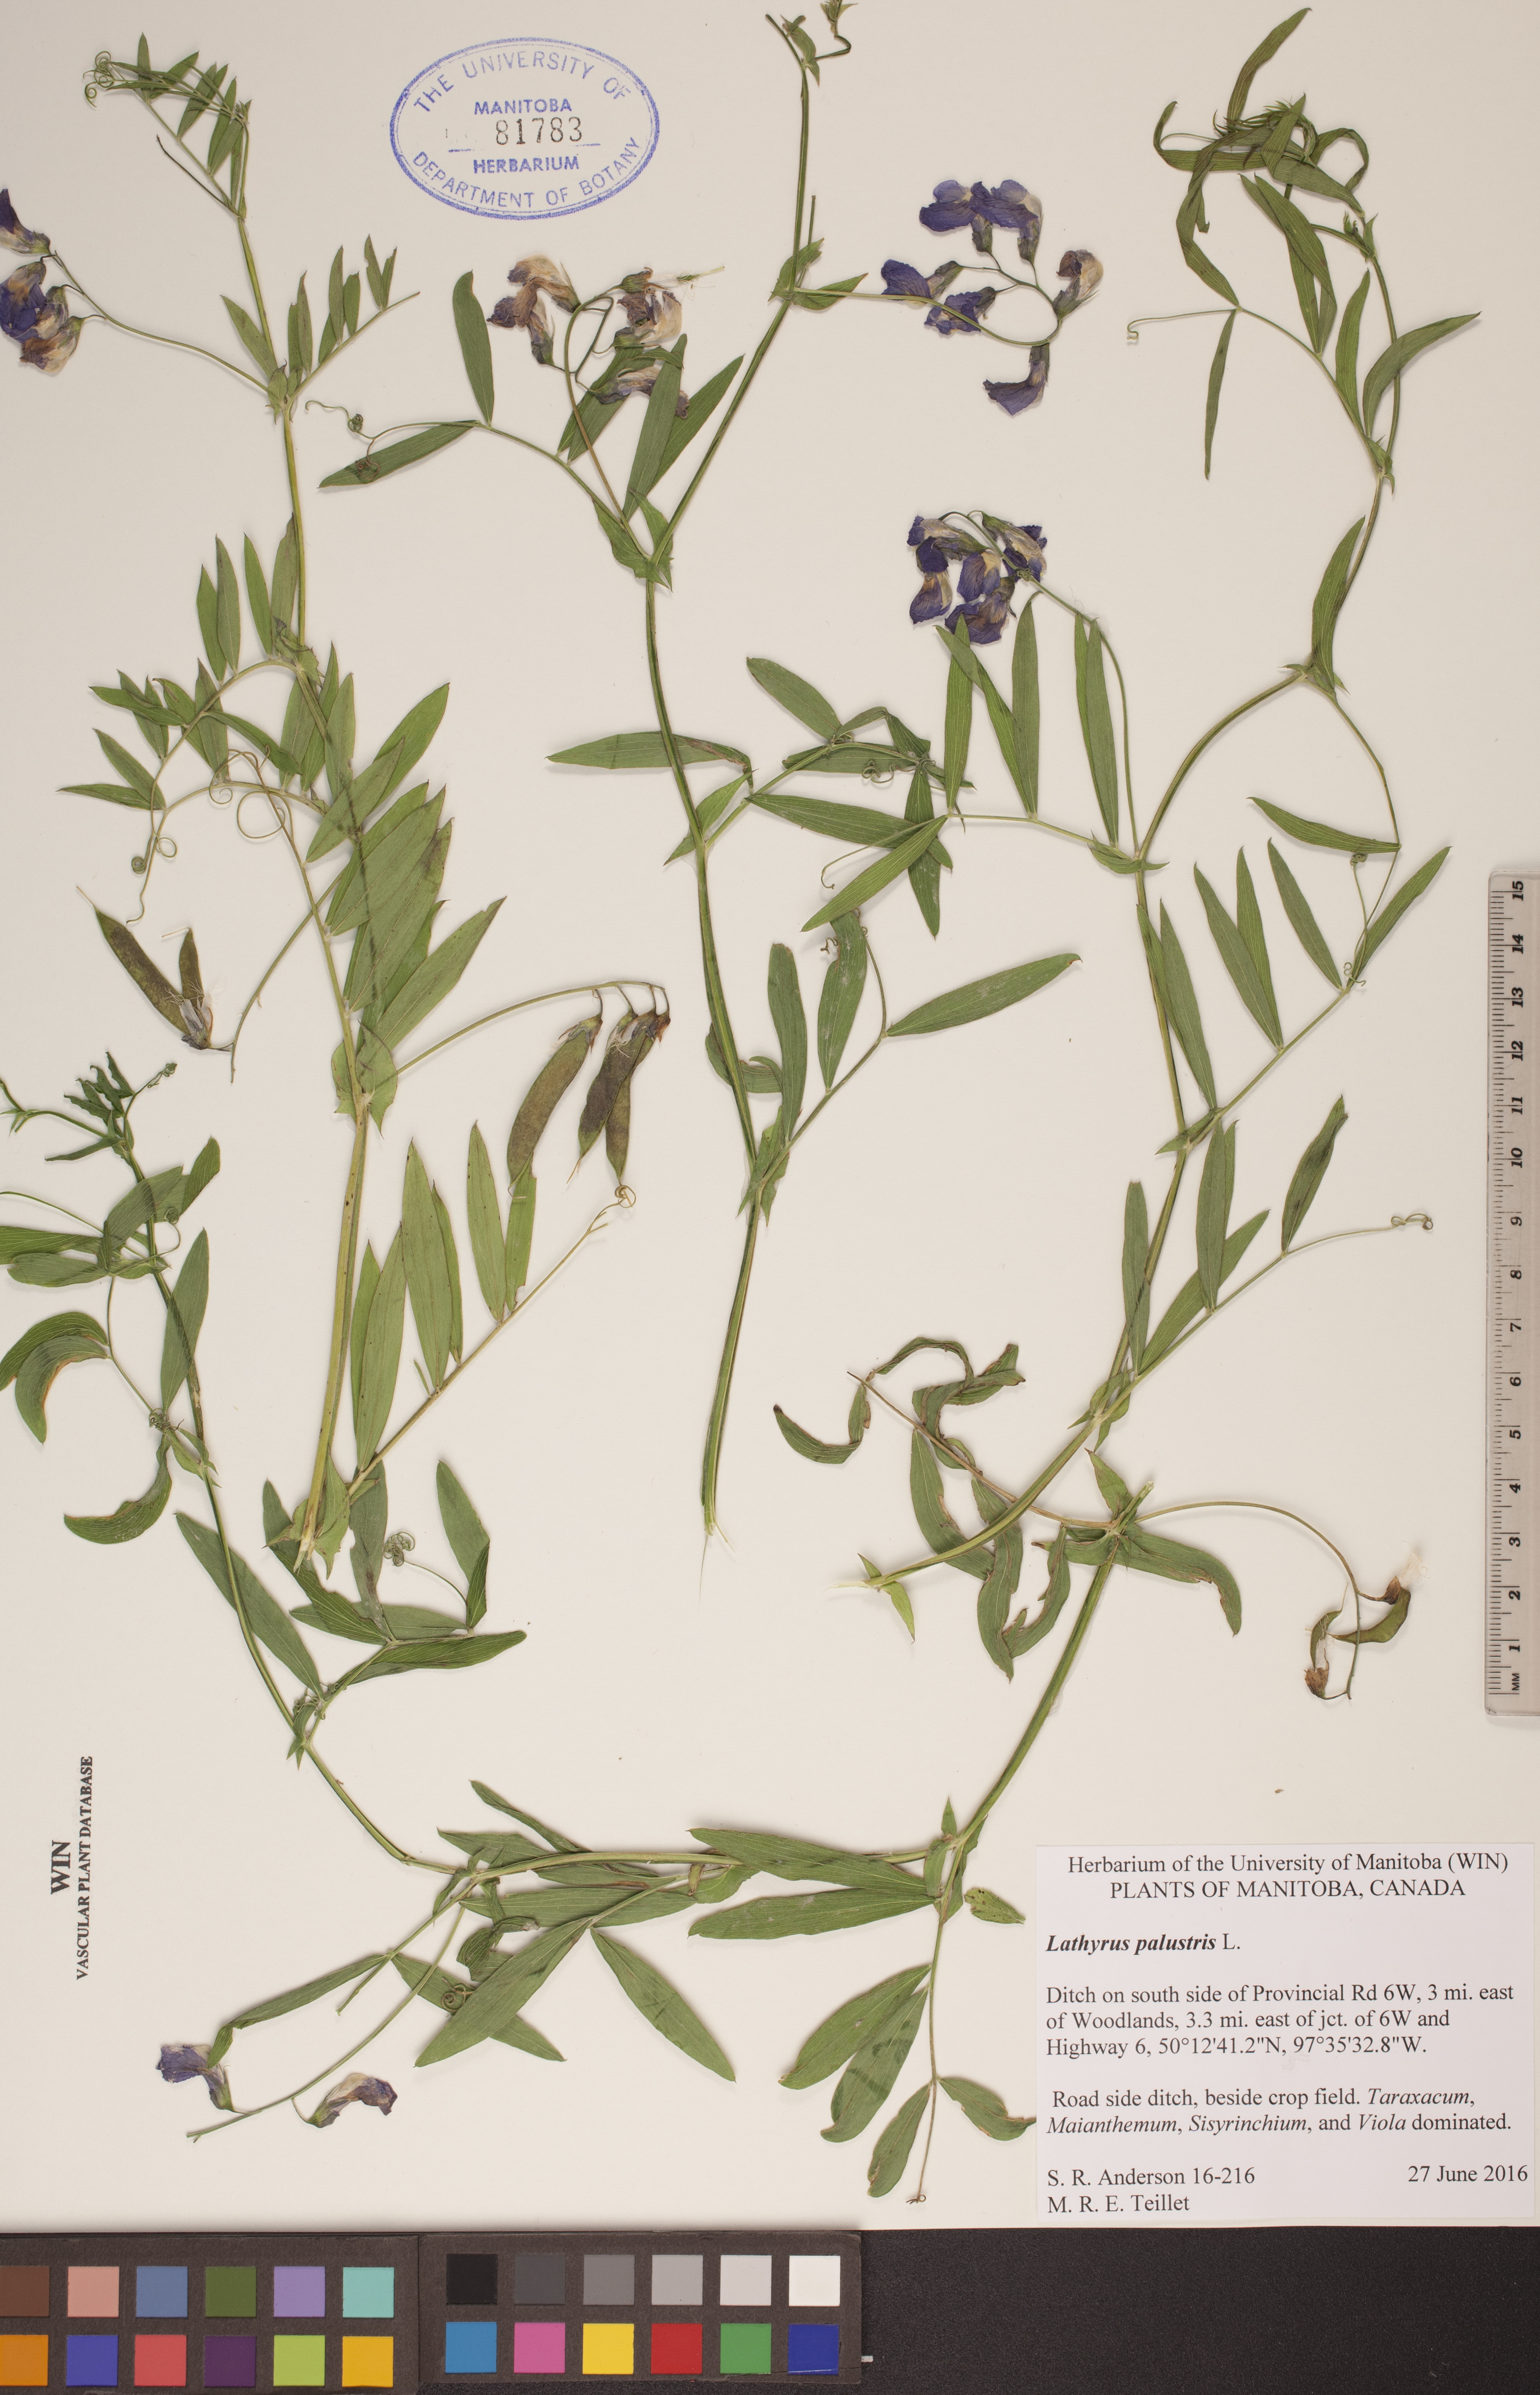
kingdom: Plantae
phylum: Tracheophyta
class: Magnoliopsida
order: Fabales
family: Fabaceae
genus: Lathyrus
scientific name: Lathyrus palustris
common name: Marsh pea
